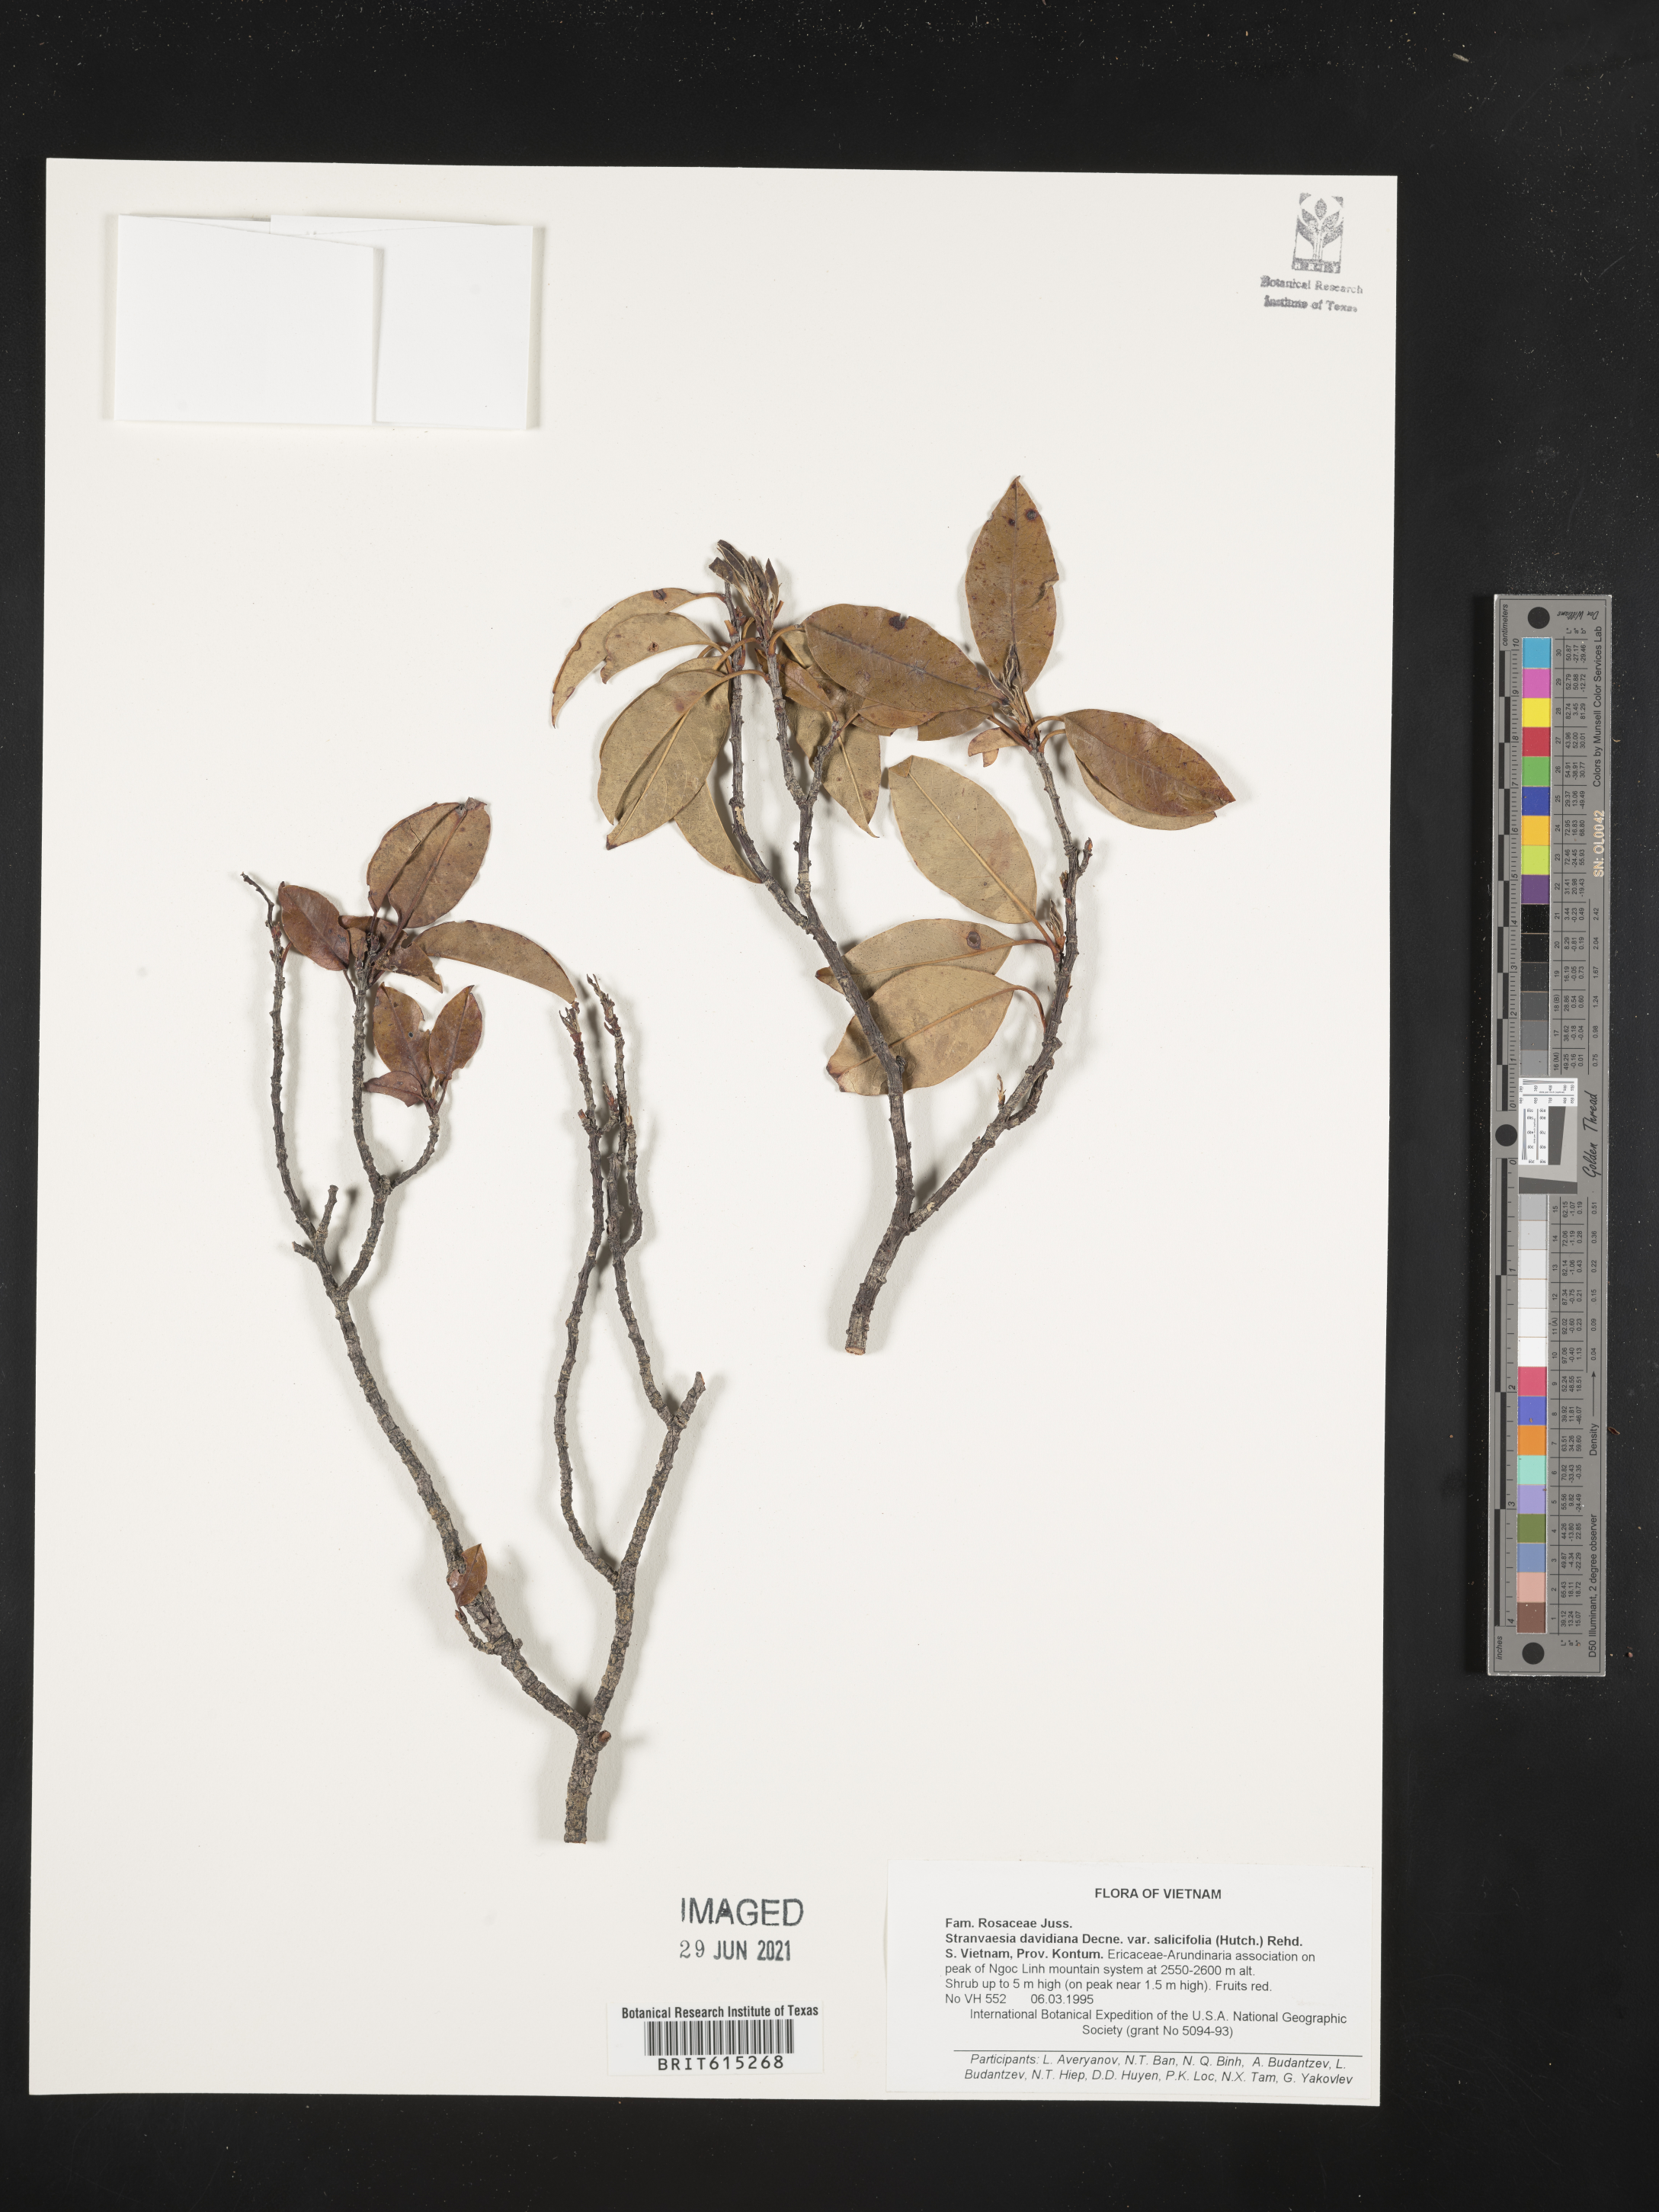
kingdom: Plantae
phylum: Tracheophyta
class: Magnoliopsida
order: Rosales
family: Rosaceae
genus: Stranvaesia
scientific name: Stranvaesia davidiana
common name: Chinese photinia
